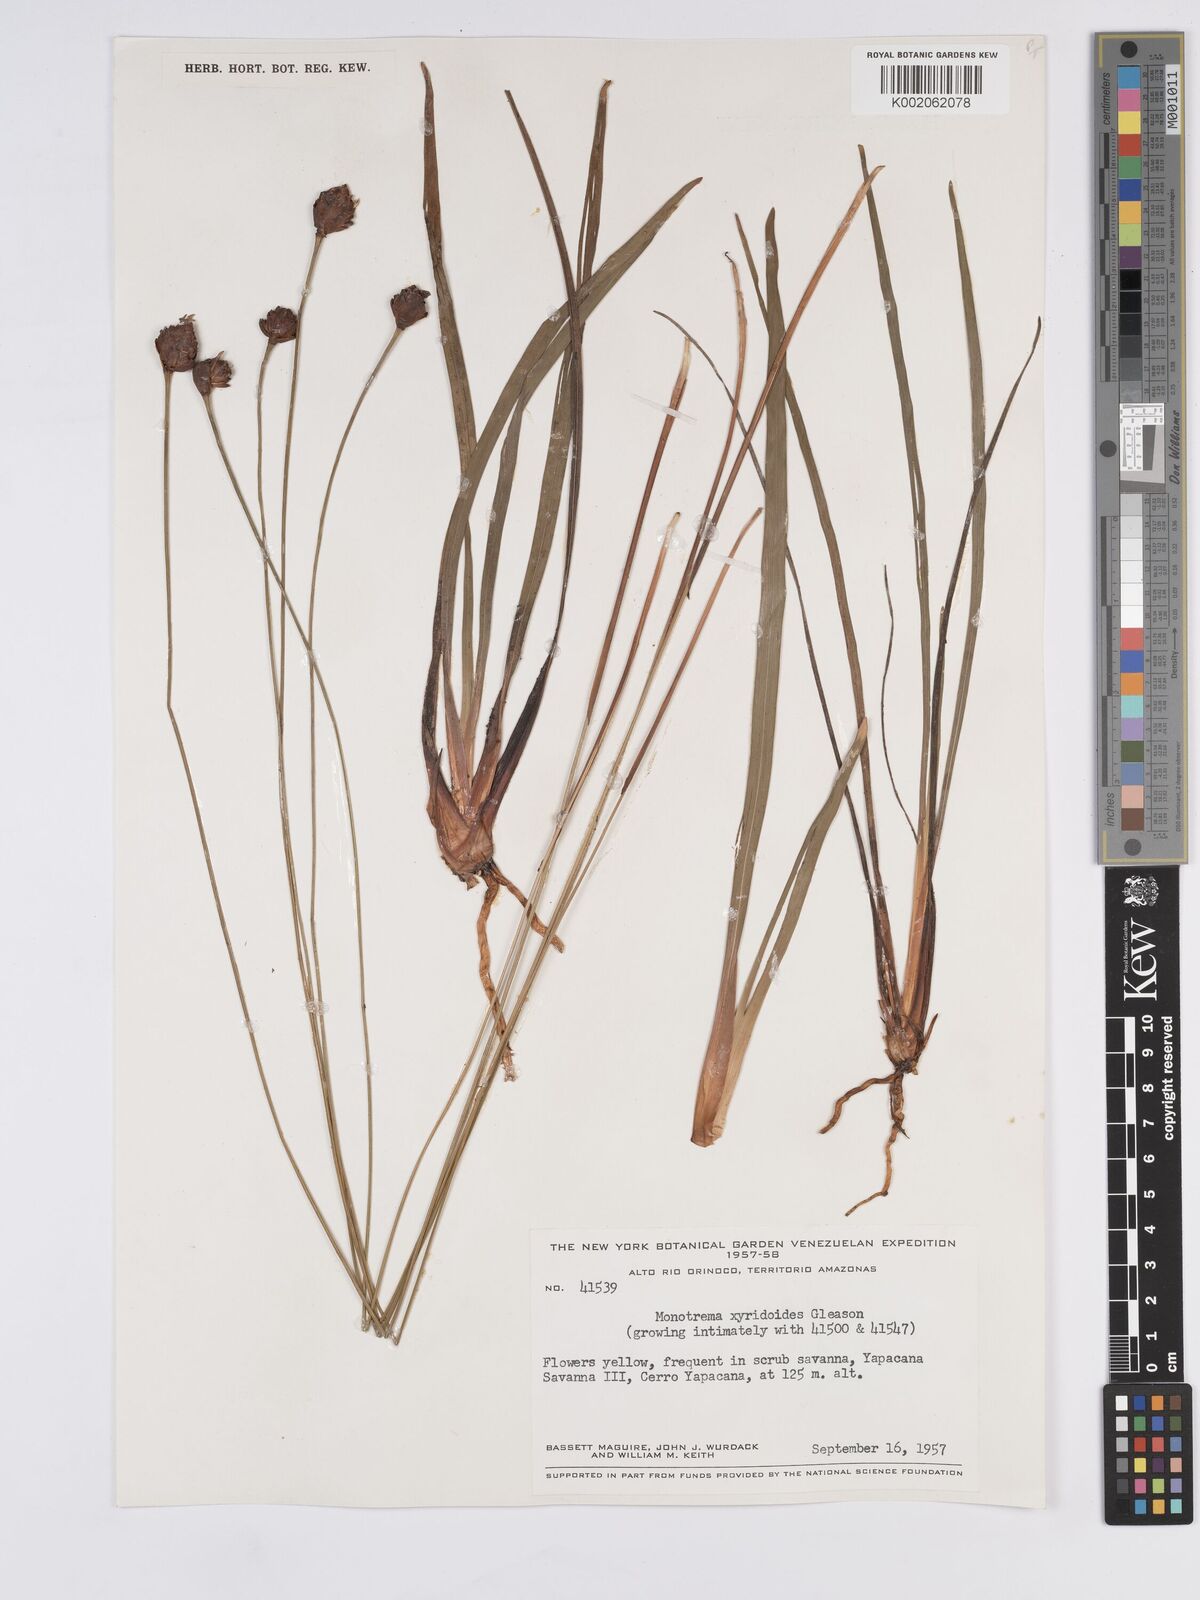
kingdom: Plantae
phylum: Tracheophyta
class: Liliopsida
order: Poales
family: Rapateaceae
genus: Monotrema
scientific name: Monotrema xyridoides
